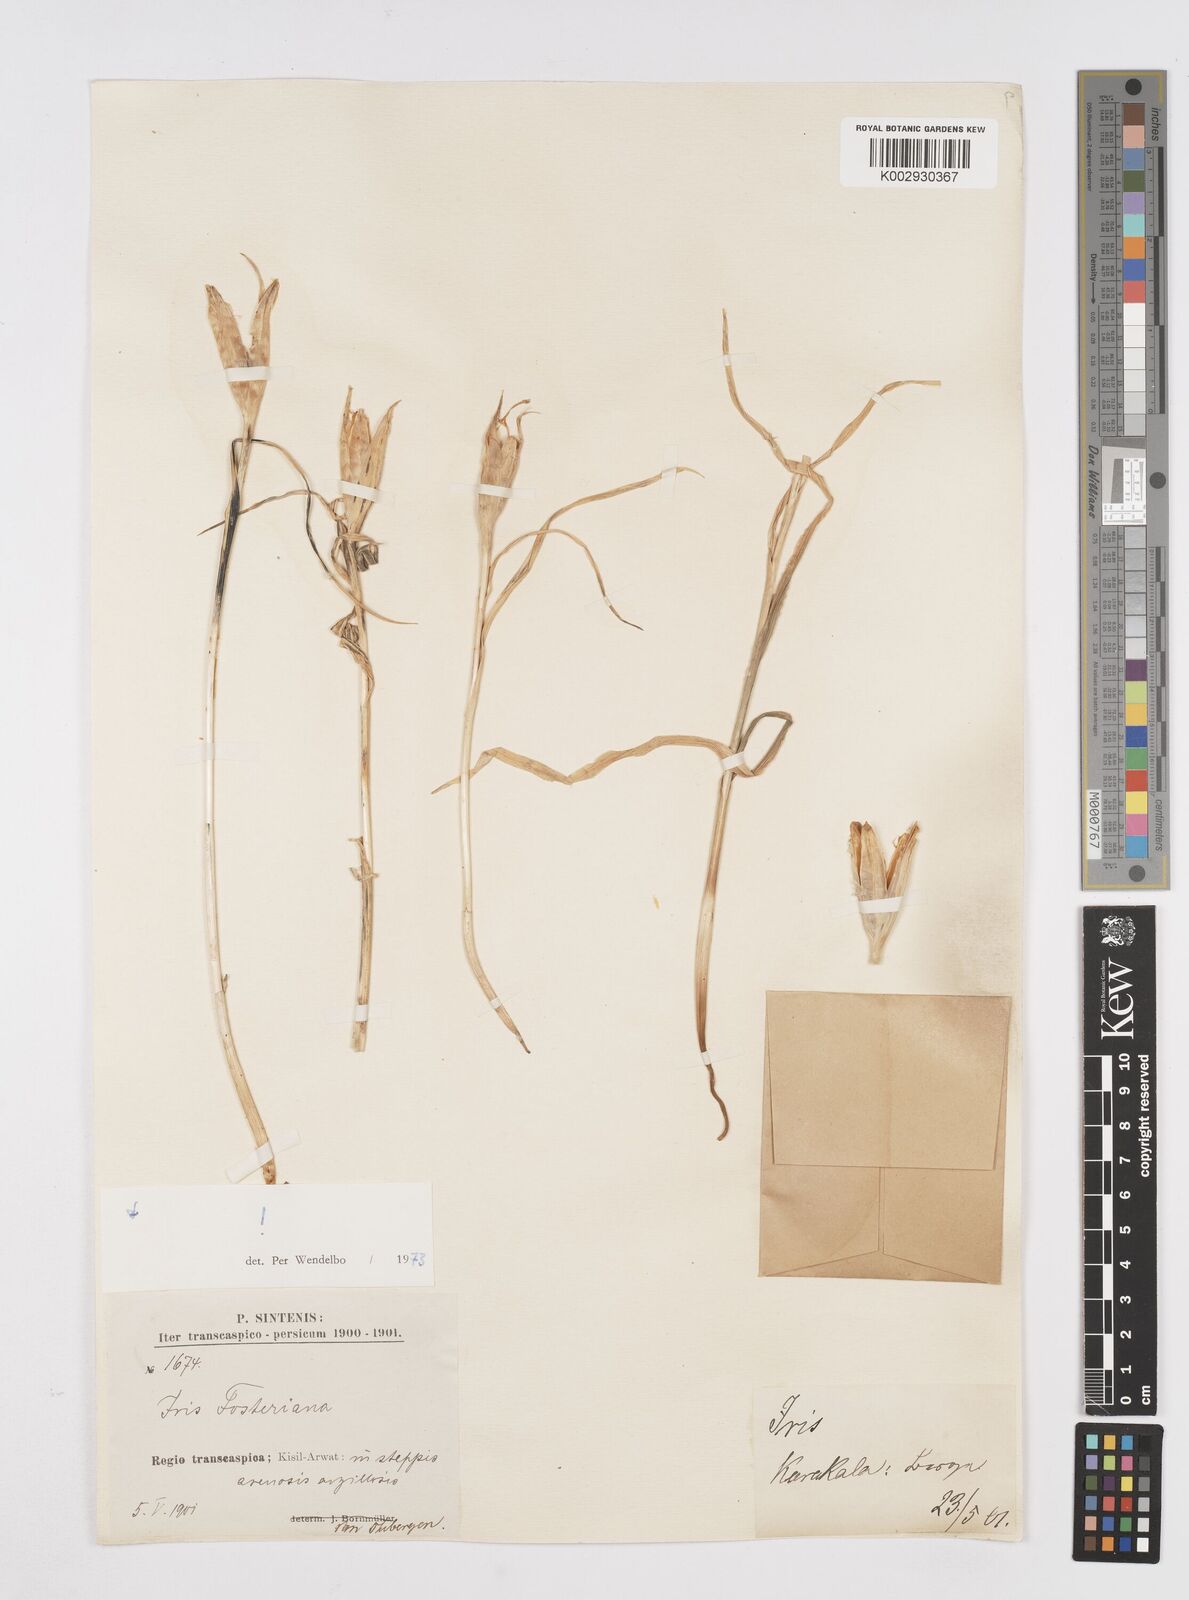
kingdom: Plantae
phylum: Tracheophyta
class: Liliopsida
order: Asparagales
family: Iridaceae
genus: Iris
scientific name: Iris fosteriana
